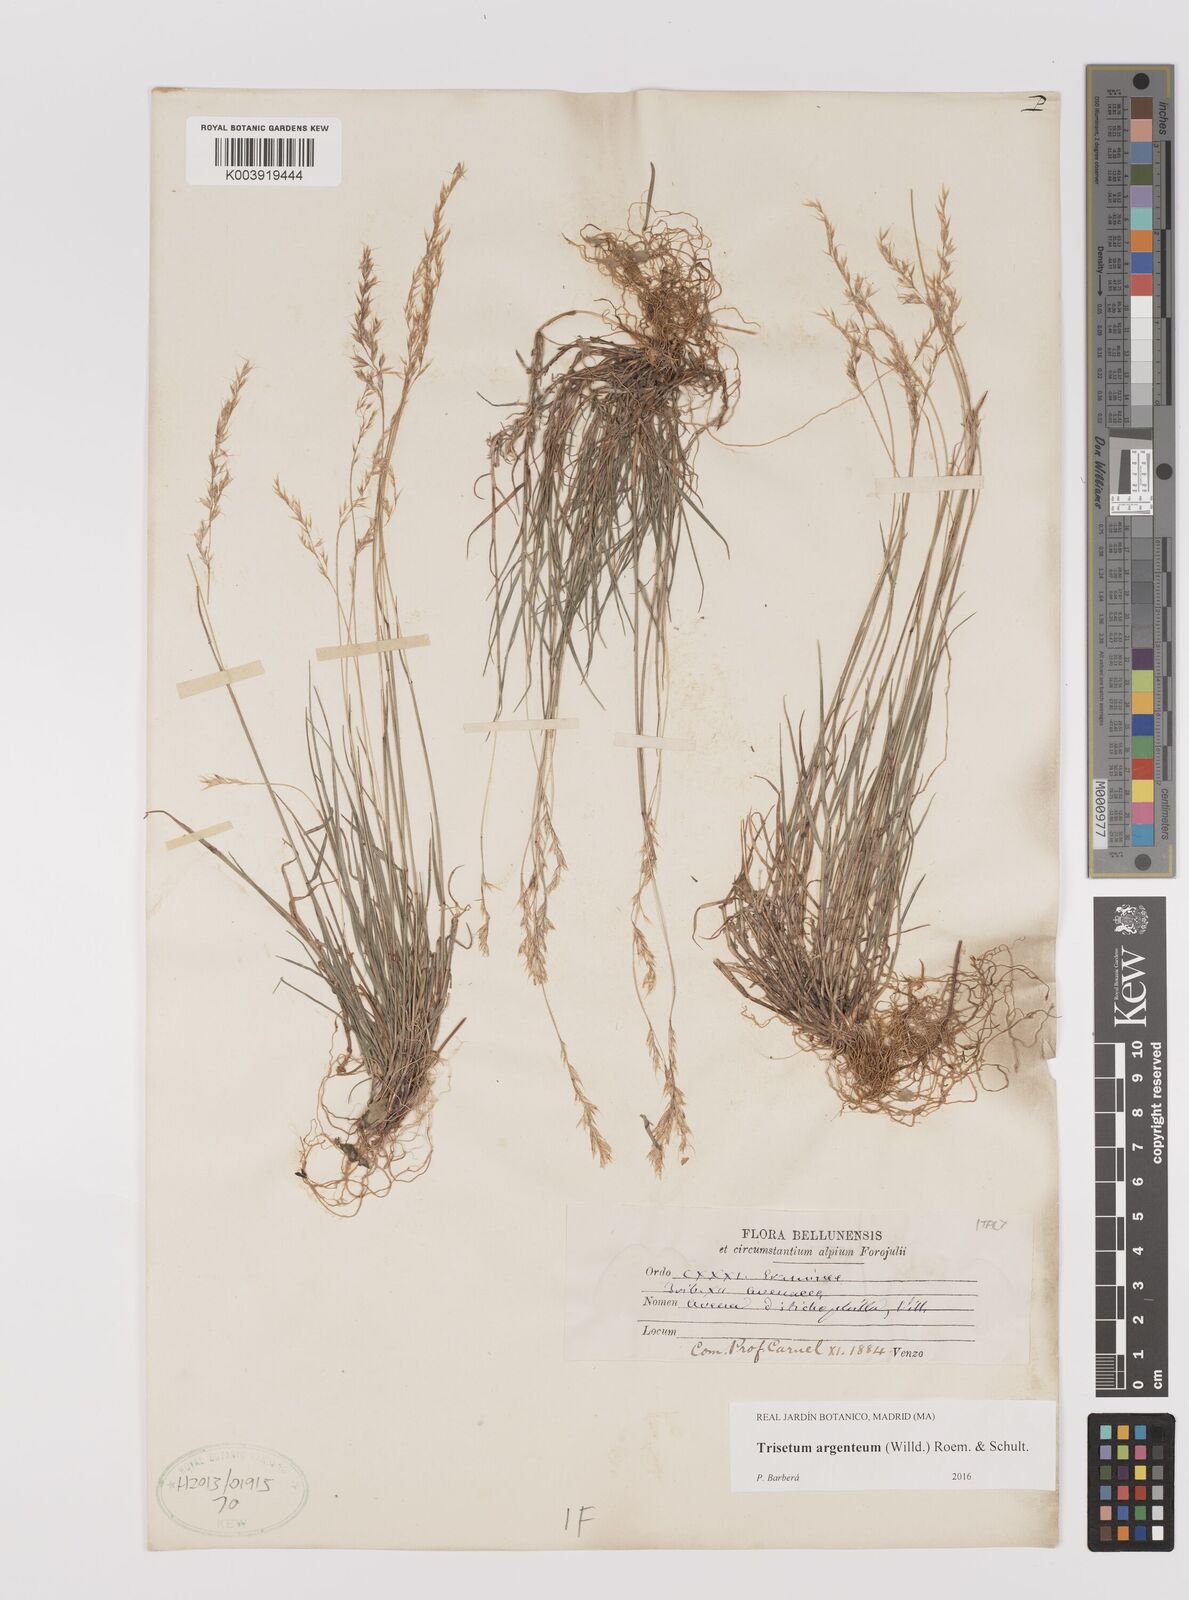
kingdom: Plantae
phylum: Tracheophyta
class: Liliopsida
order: Poales
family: Poaceae
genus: Trisetum
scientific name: Trisetum argenteum
